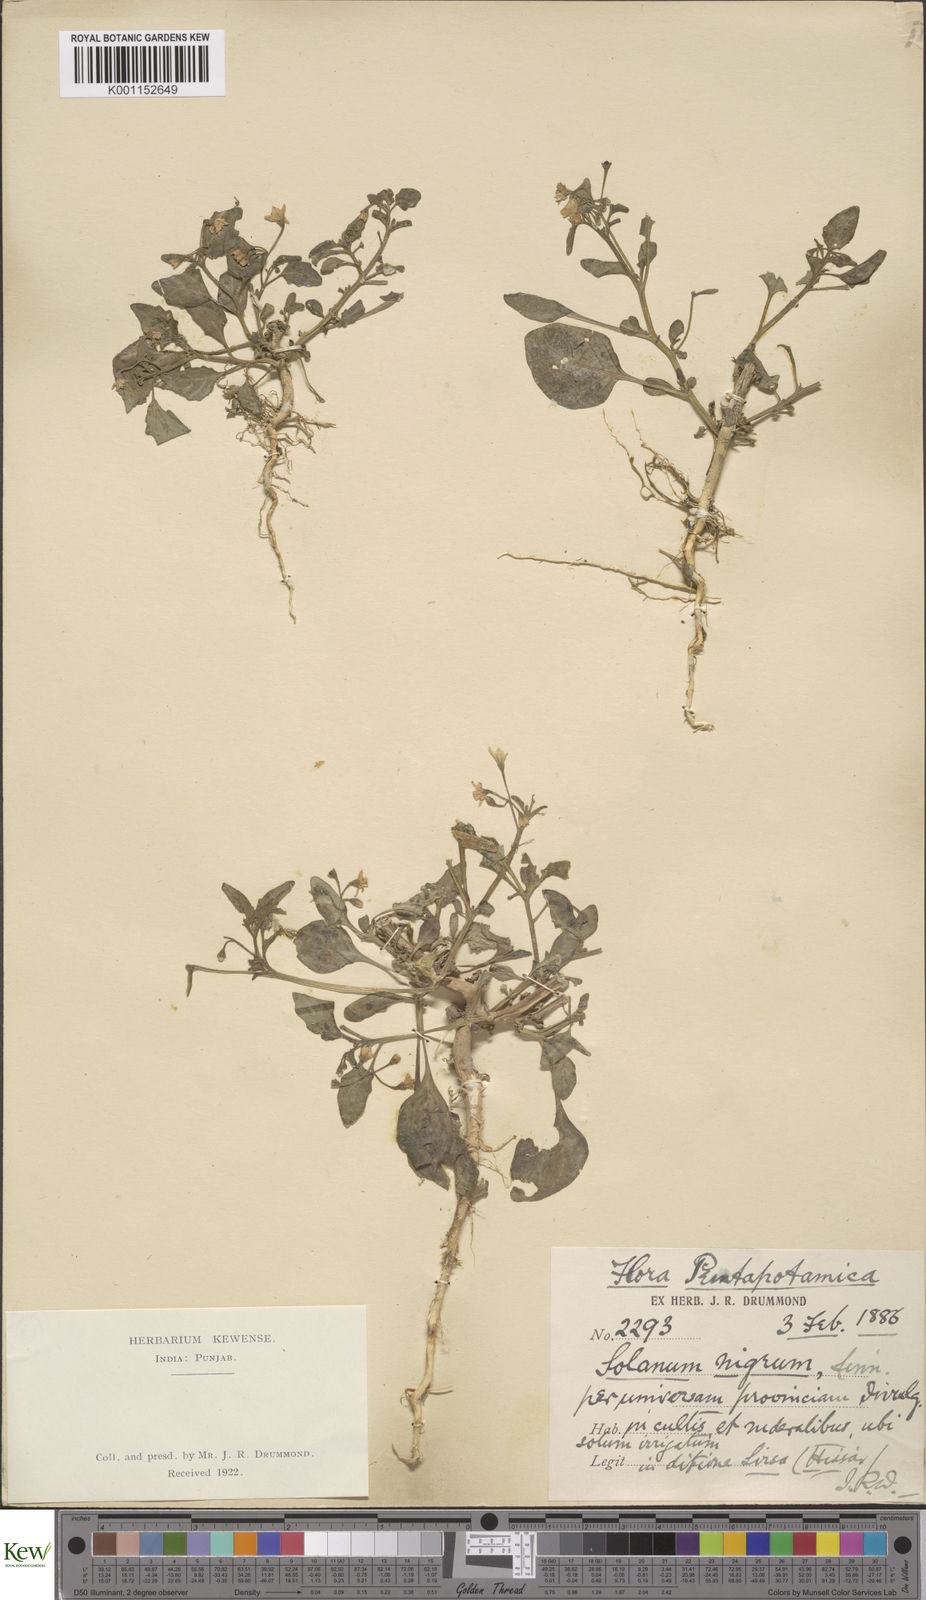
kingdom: Plantae
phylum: Tracheophyta
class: Magnoliopsida
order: Solanales
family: Solanaceae
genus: Solanum
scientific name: Solanum nigrum
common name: Black nightshade
